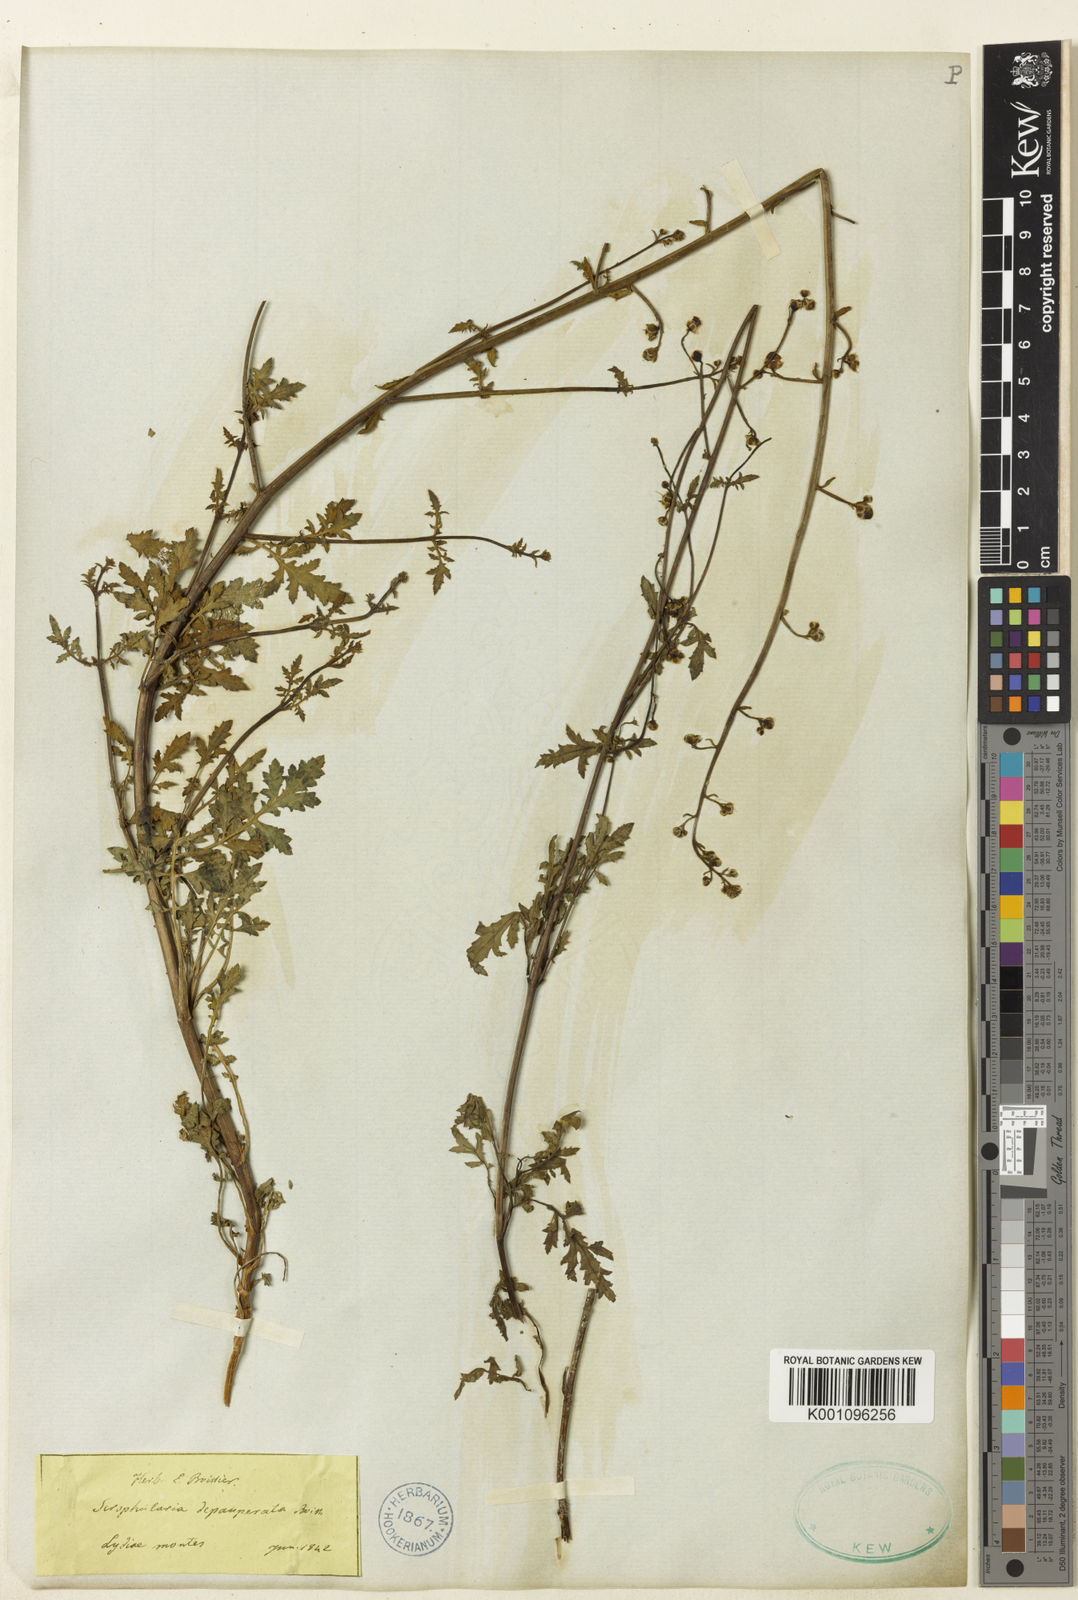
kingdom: Plantae
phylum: Tracheophyta
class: Magnoliopsida
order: Lamiales
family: Scrophulariaceae
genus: Scrophularia
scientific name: Scrophularia depauperata
